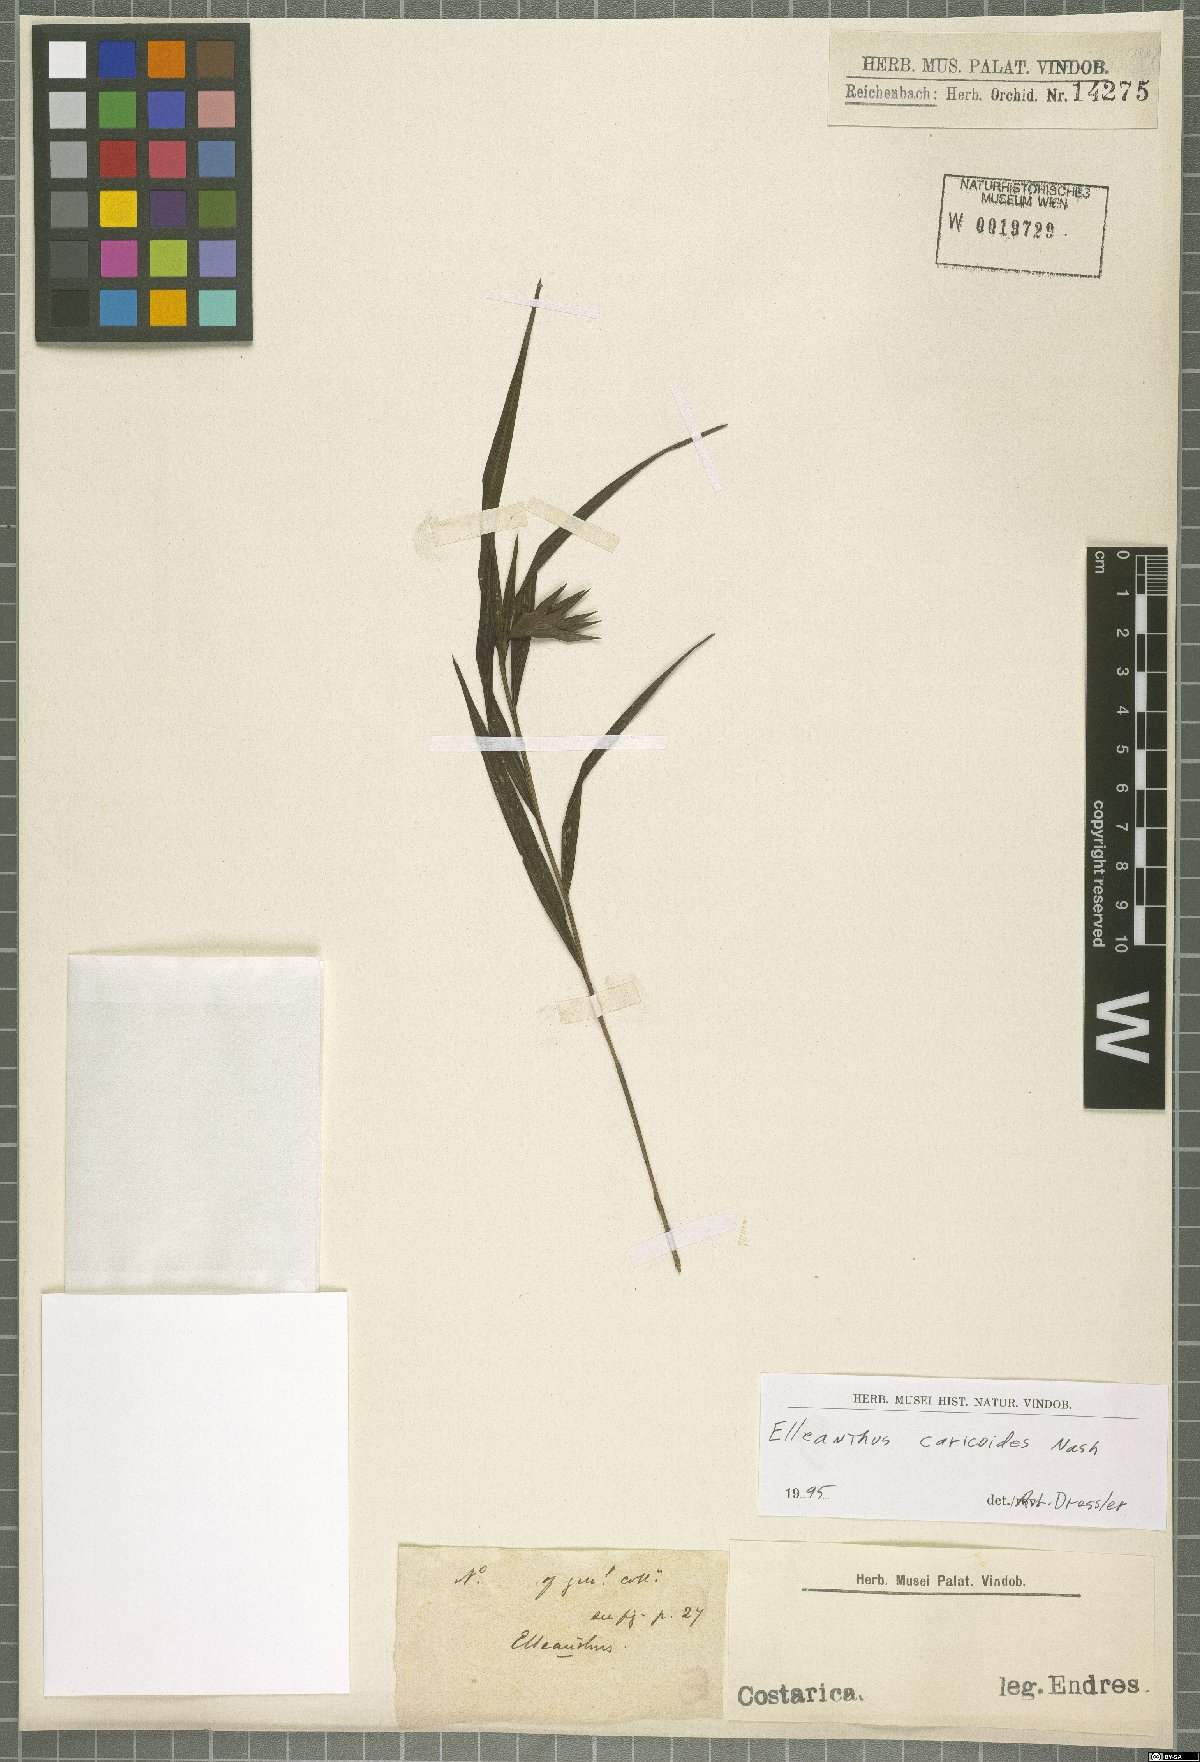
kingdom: Plantae
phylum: Tracheophyta
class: Liliopsida
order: Asparagales
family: Orchidaceae
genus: Elleanthus
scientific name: Elleanthus caricoides
